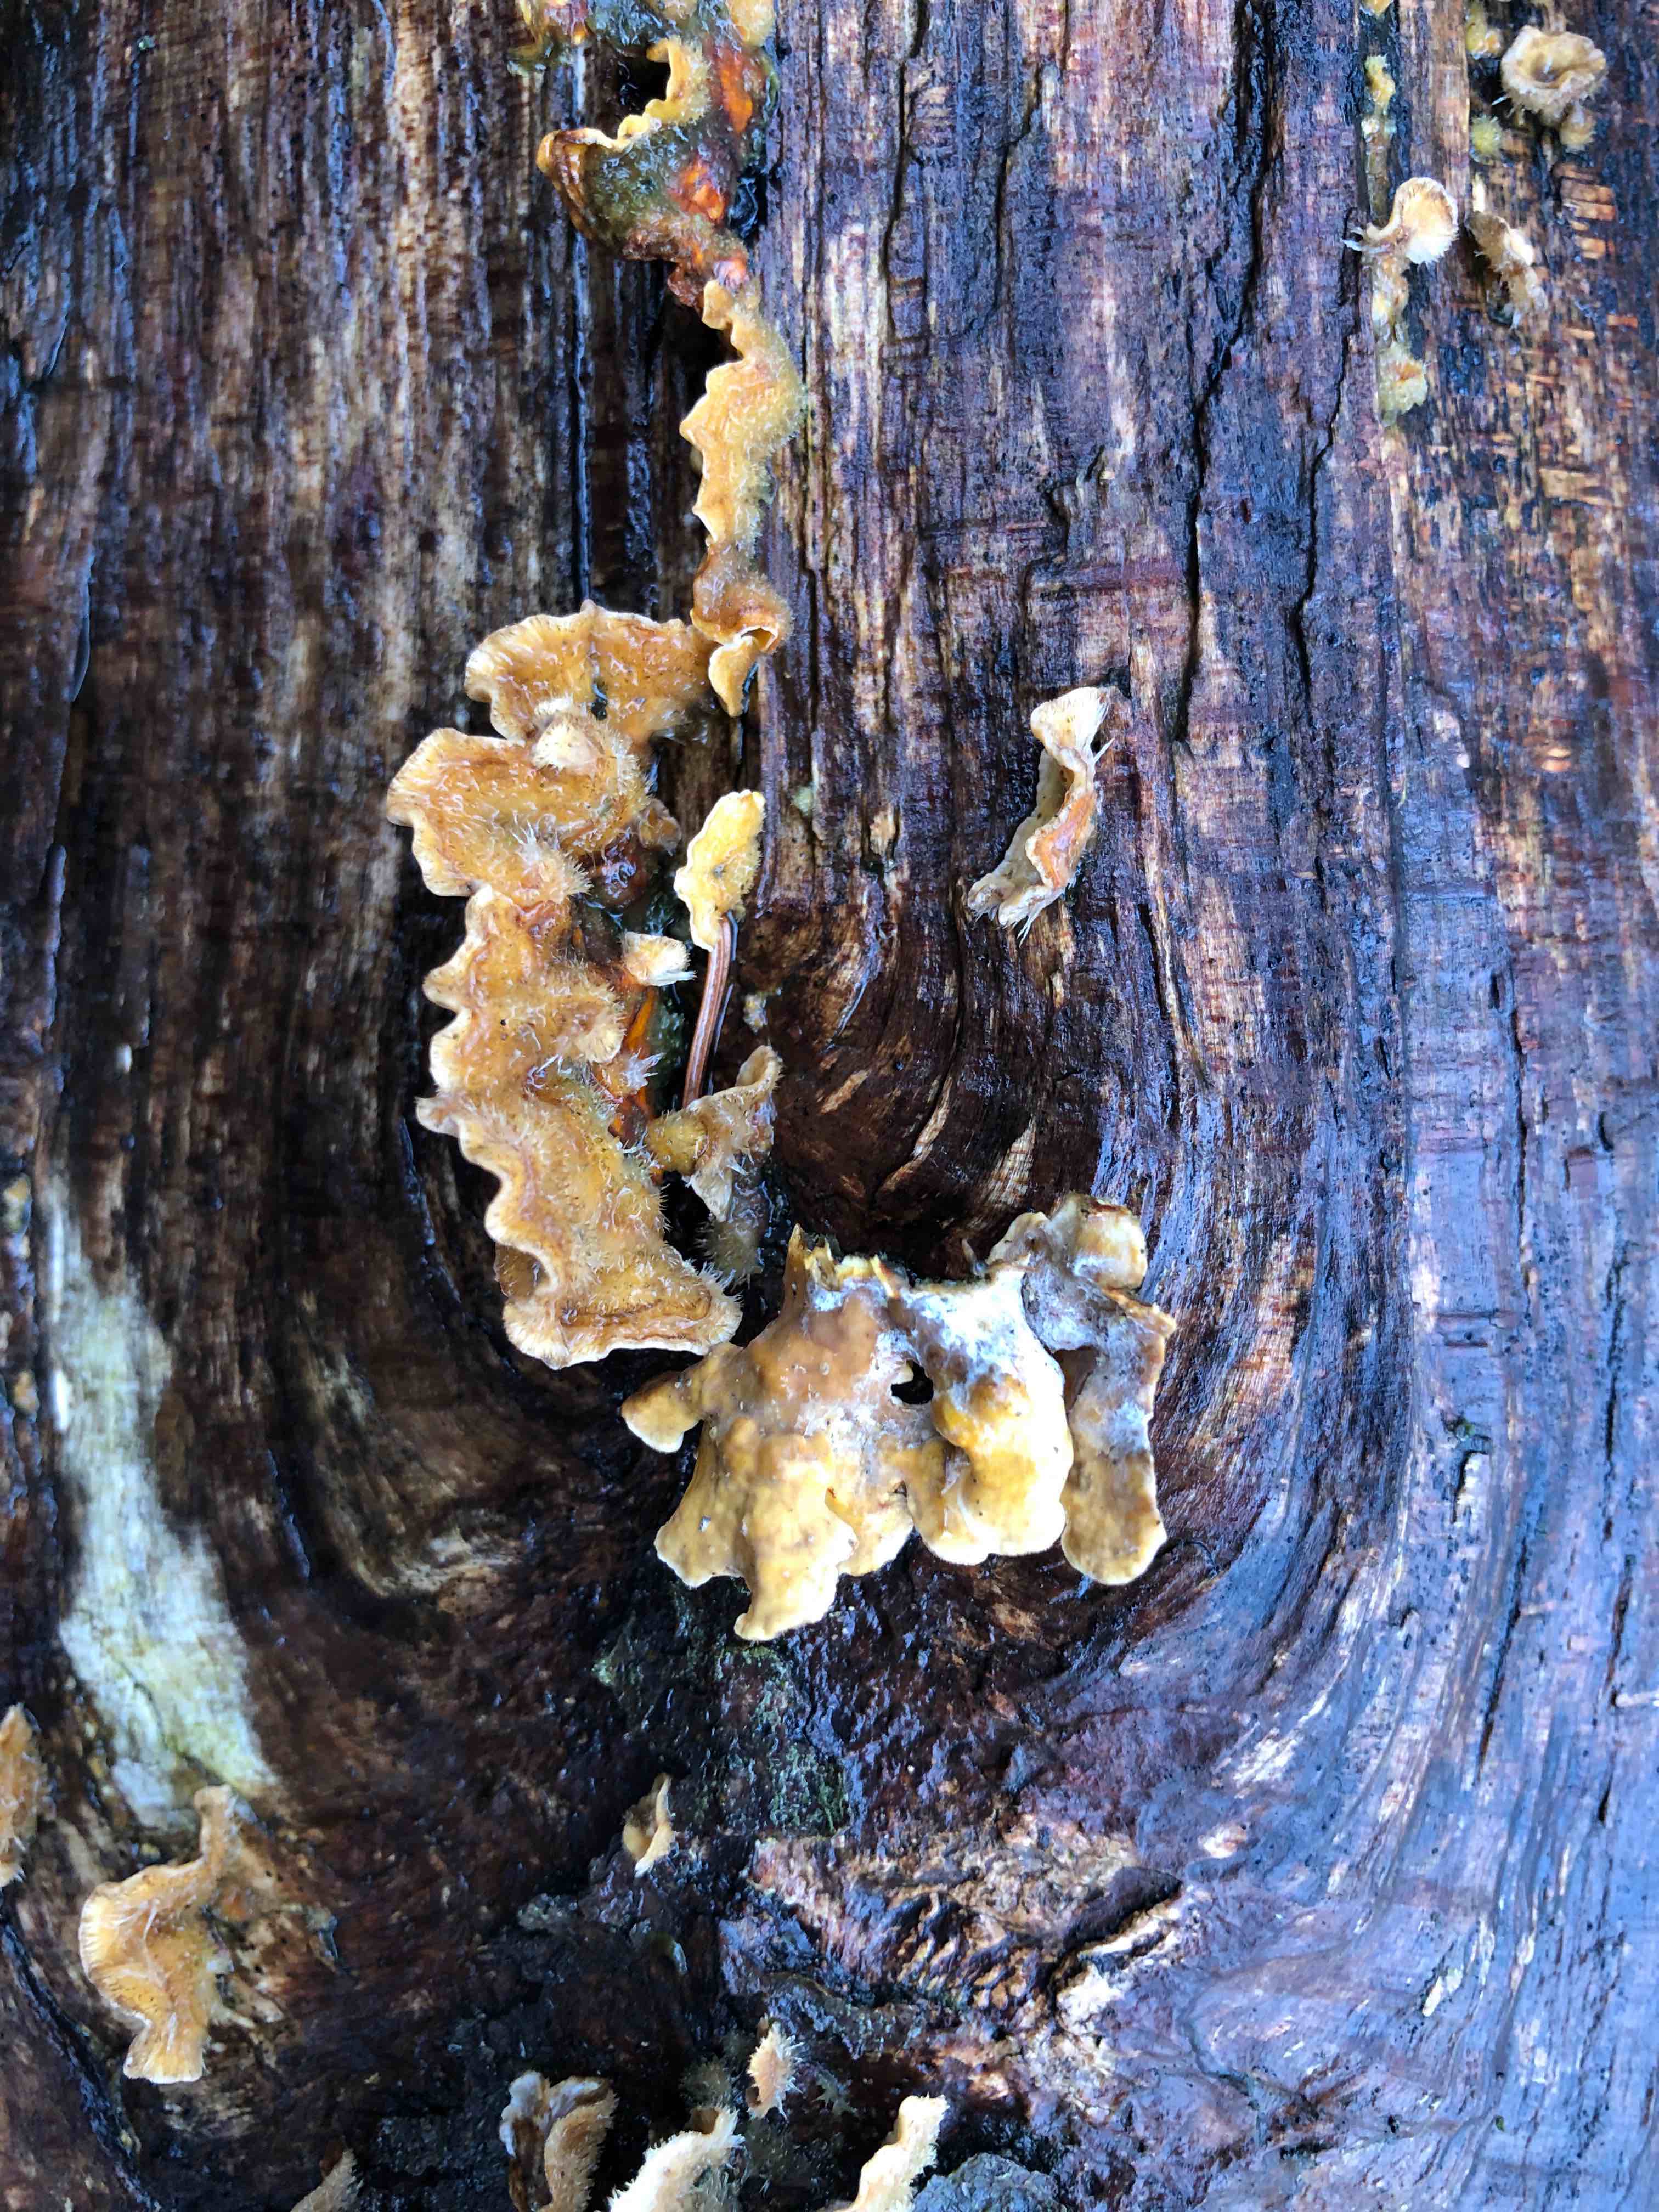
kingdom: Fungi
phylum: Basidiomycota
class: Agaricomycetes
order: Russulales
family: Stereaceae
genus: Stereum
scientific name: Stereum hirsutum
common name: håret lædersvamp
